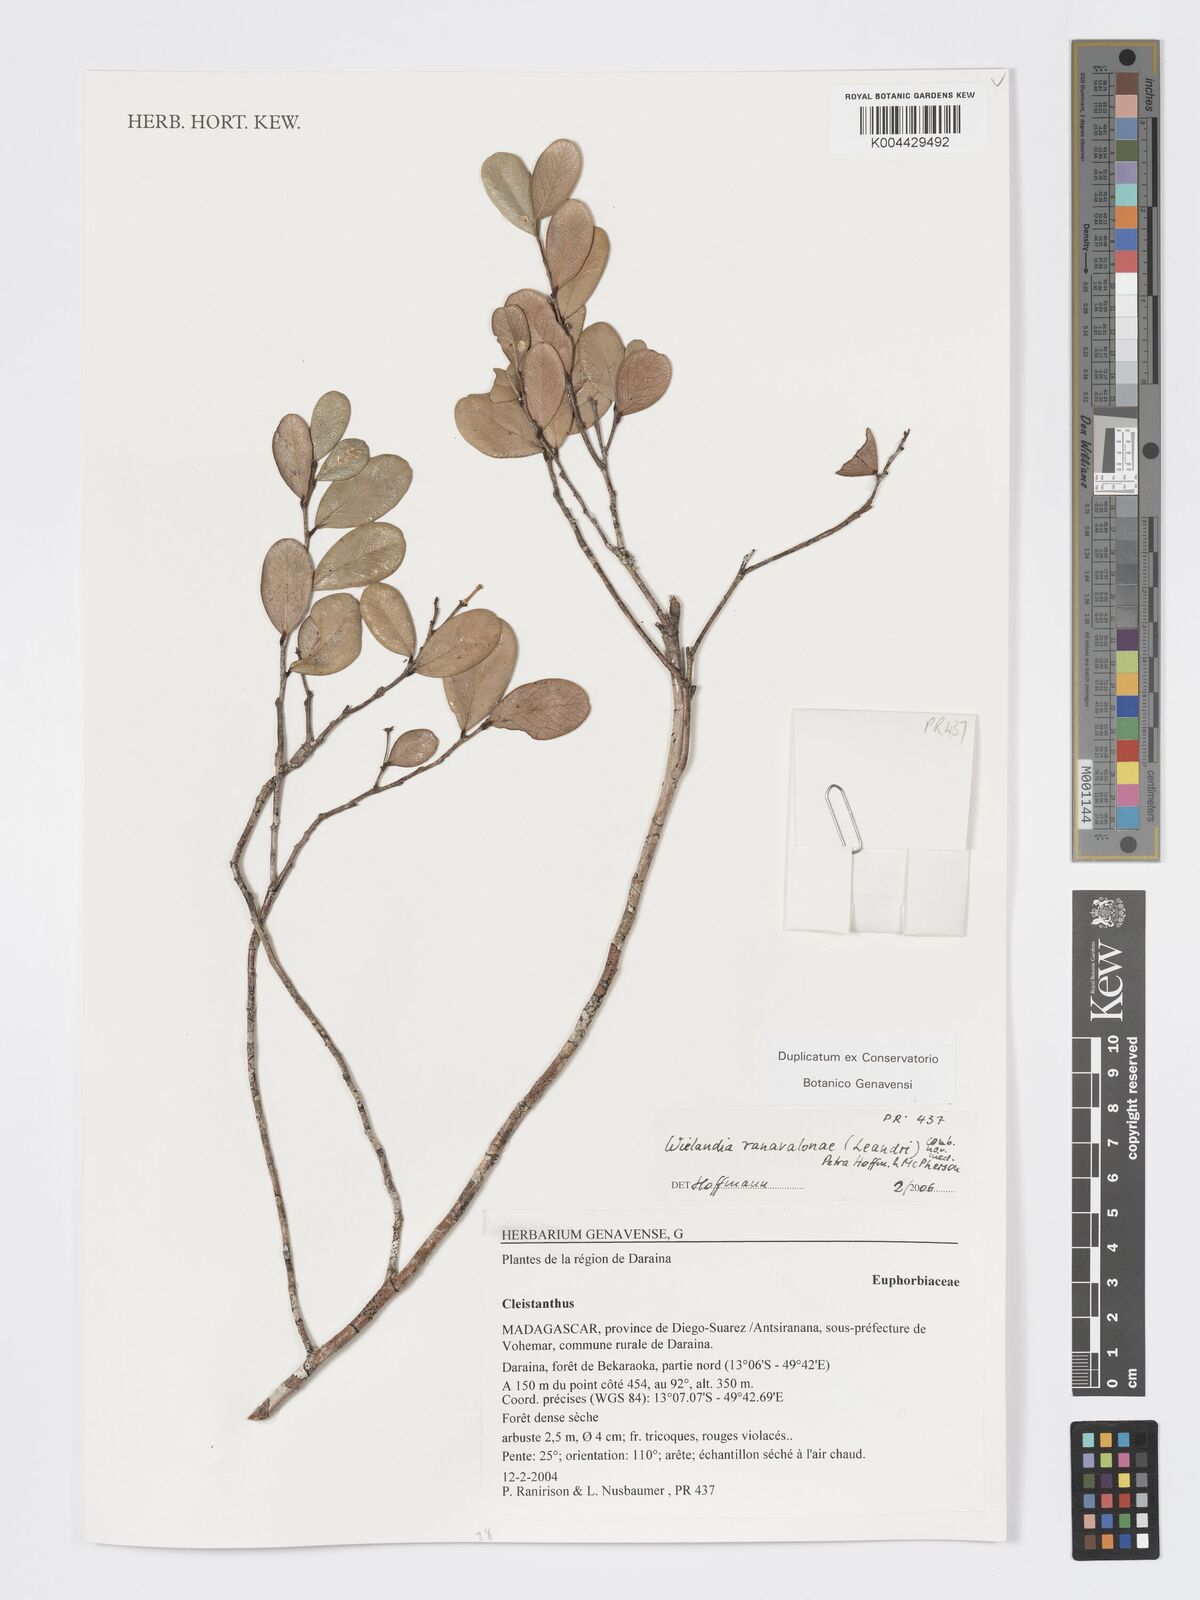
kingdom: Plantae
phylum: Tracheophyta
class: Magnoliopsida
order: Malpighiales
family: Phyllanthaceae
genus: Wielandia
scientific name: Wielandia ranavalonae
